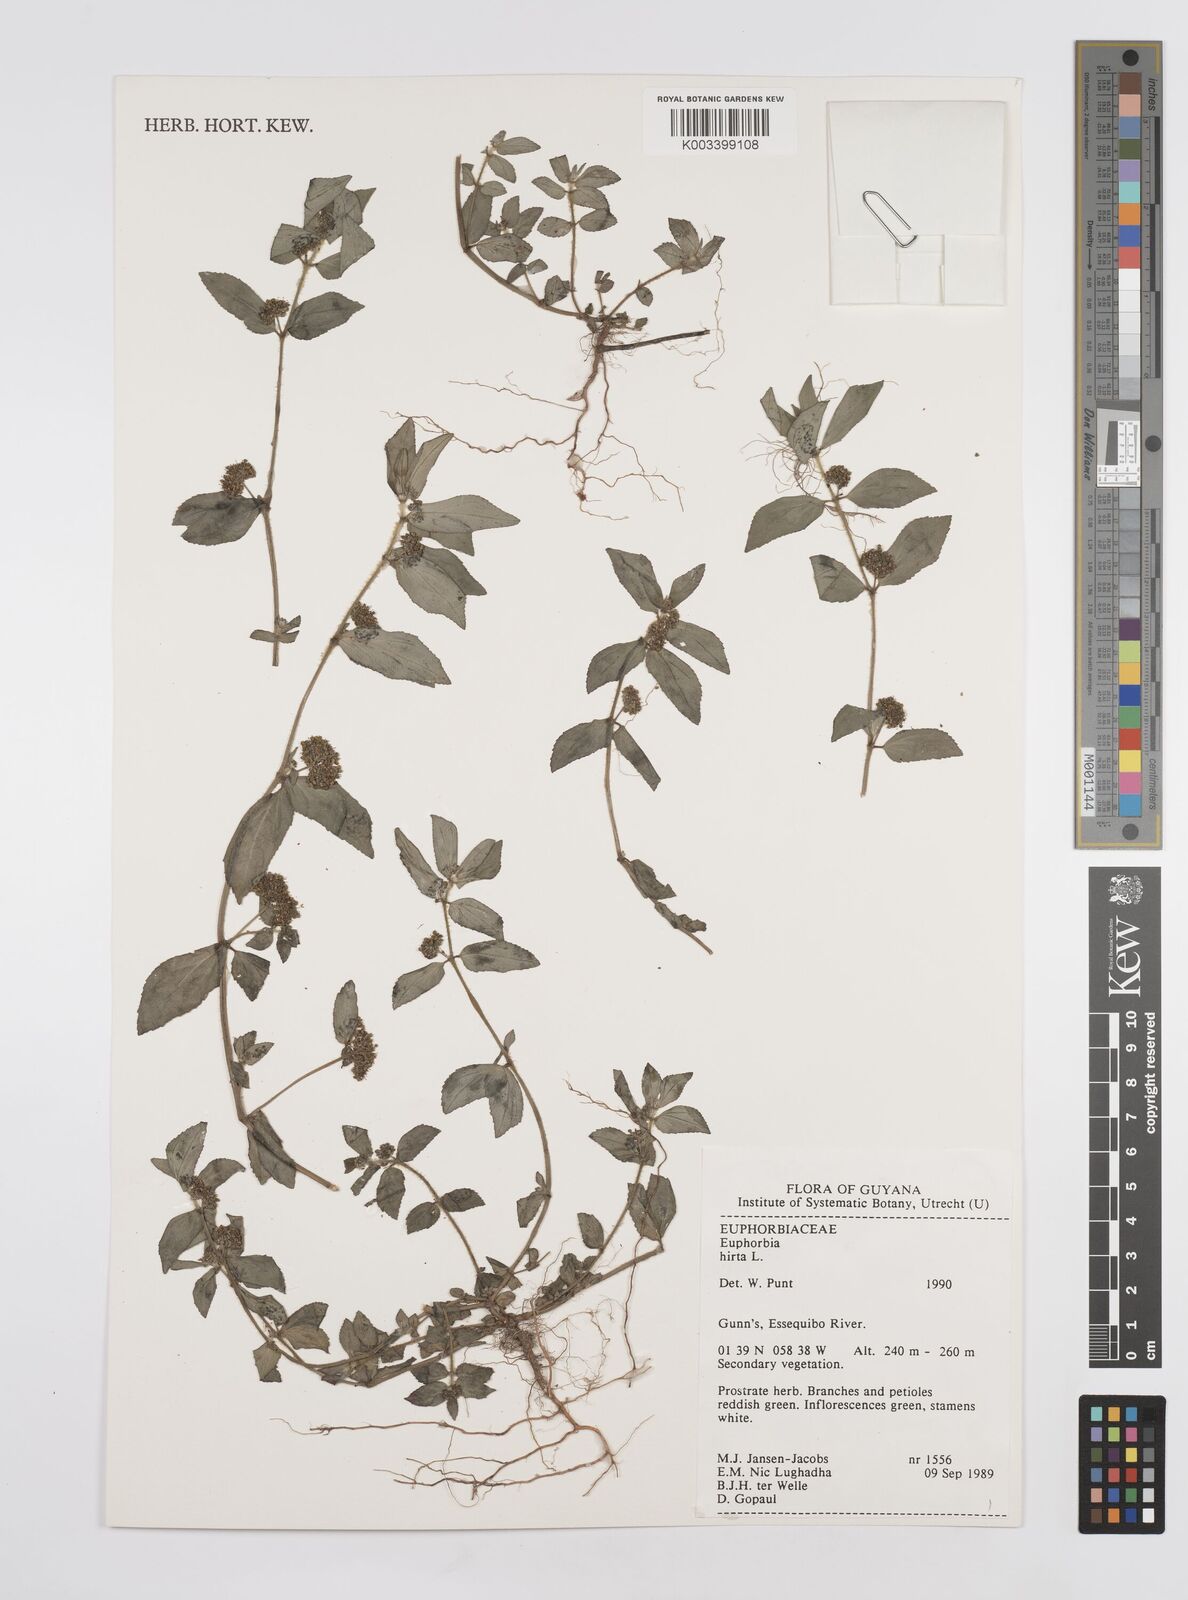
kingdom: Plantae
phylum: Tracheophyta
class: Magnoliopsida
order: Malpighiales
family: Euphorbiaceae
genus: Euphorbia
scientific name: Euphorbia hirta
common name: Pillpod sandmat
